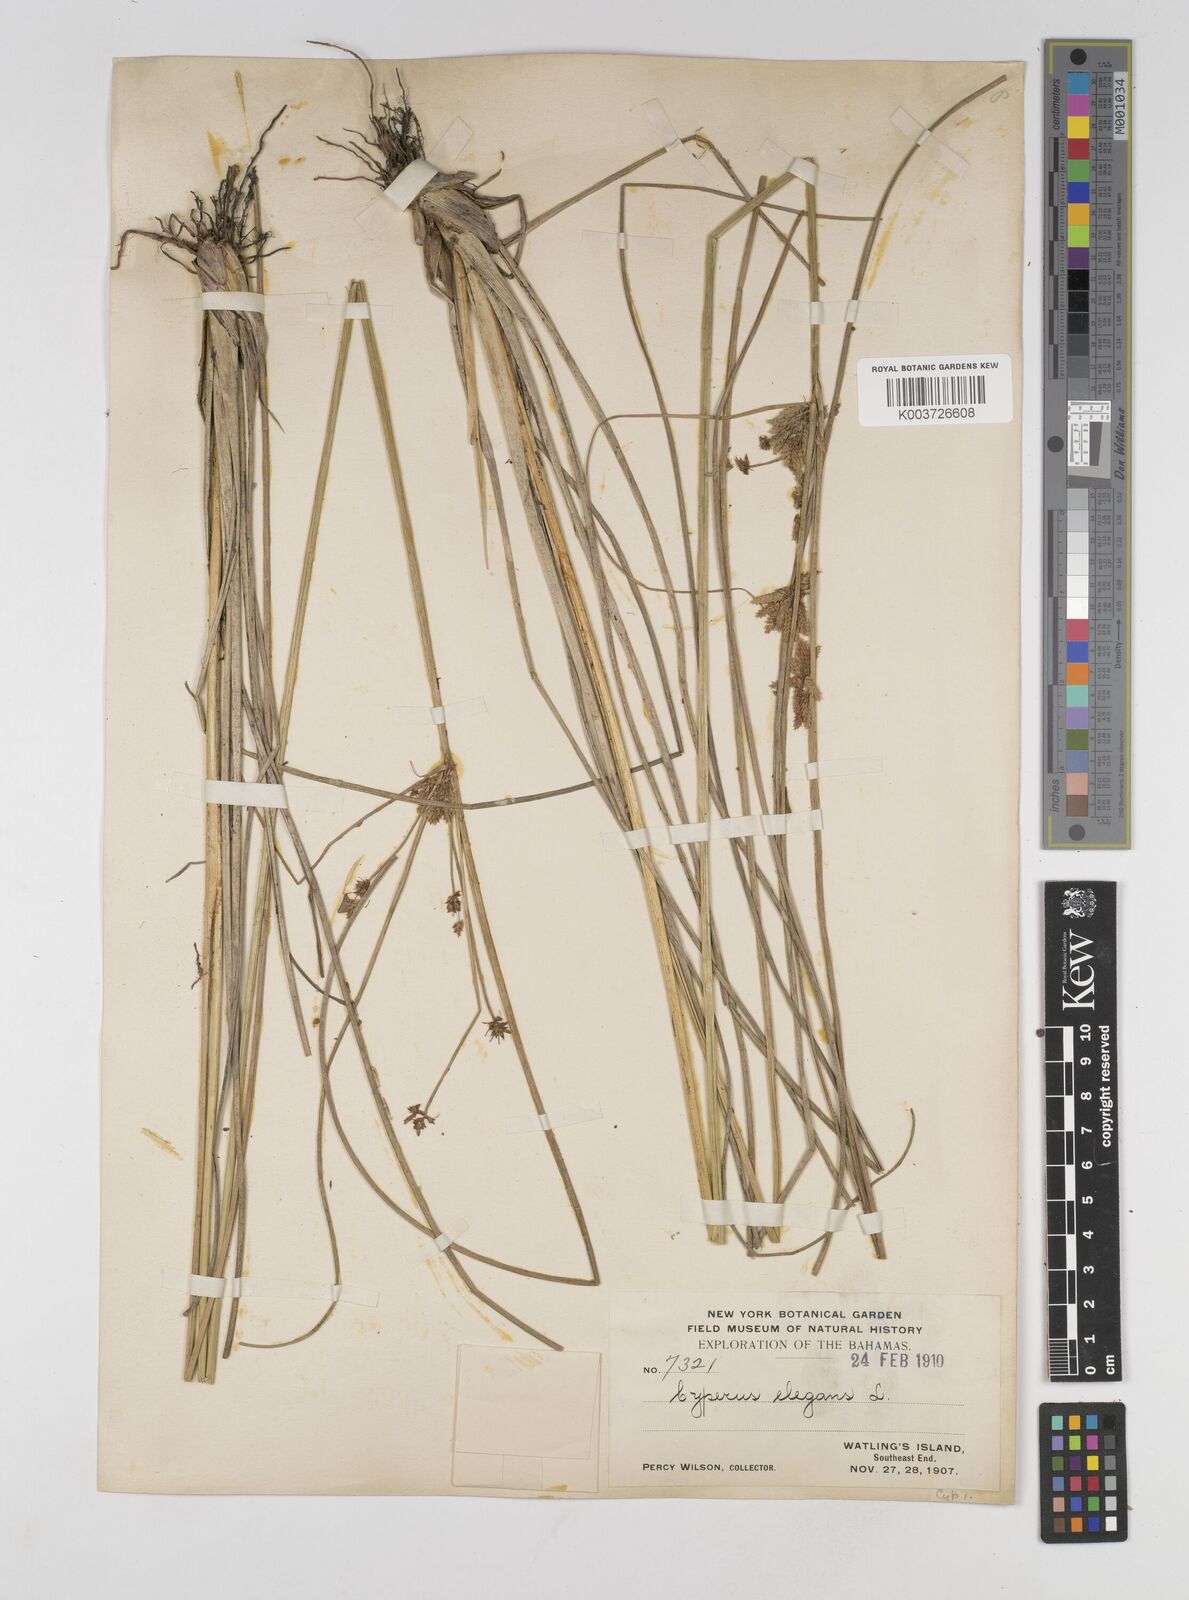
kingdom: Plantae
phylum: Tracheophyta
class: Liliopsida
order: Poales
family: Cyperaceae
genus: Cyperus
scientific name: Cyperus elegans
